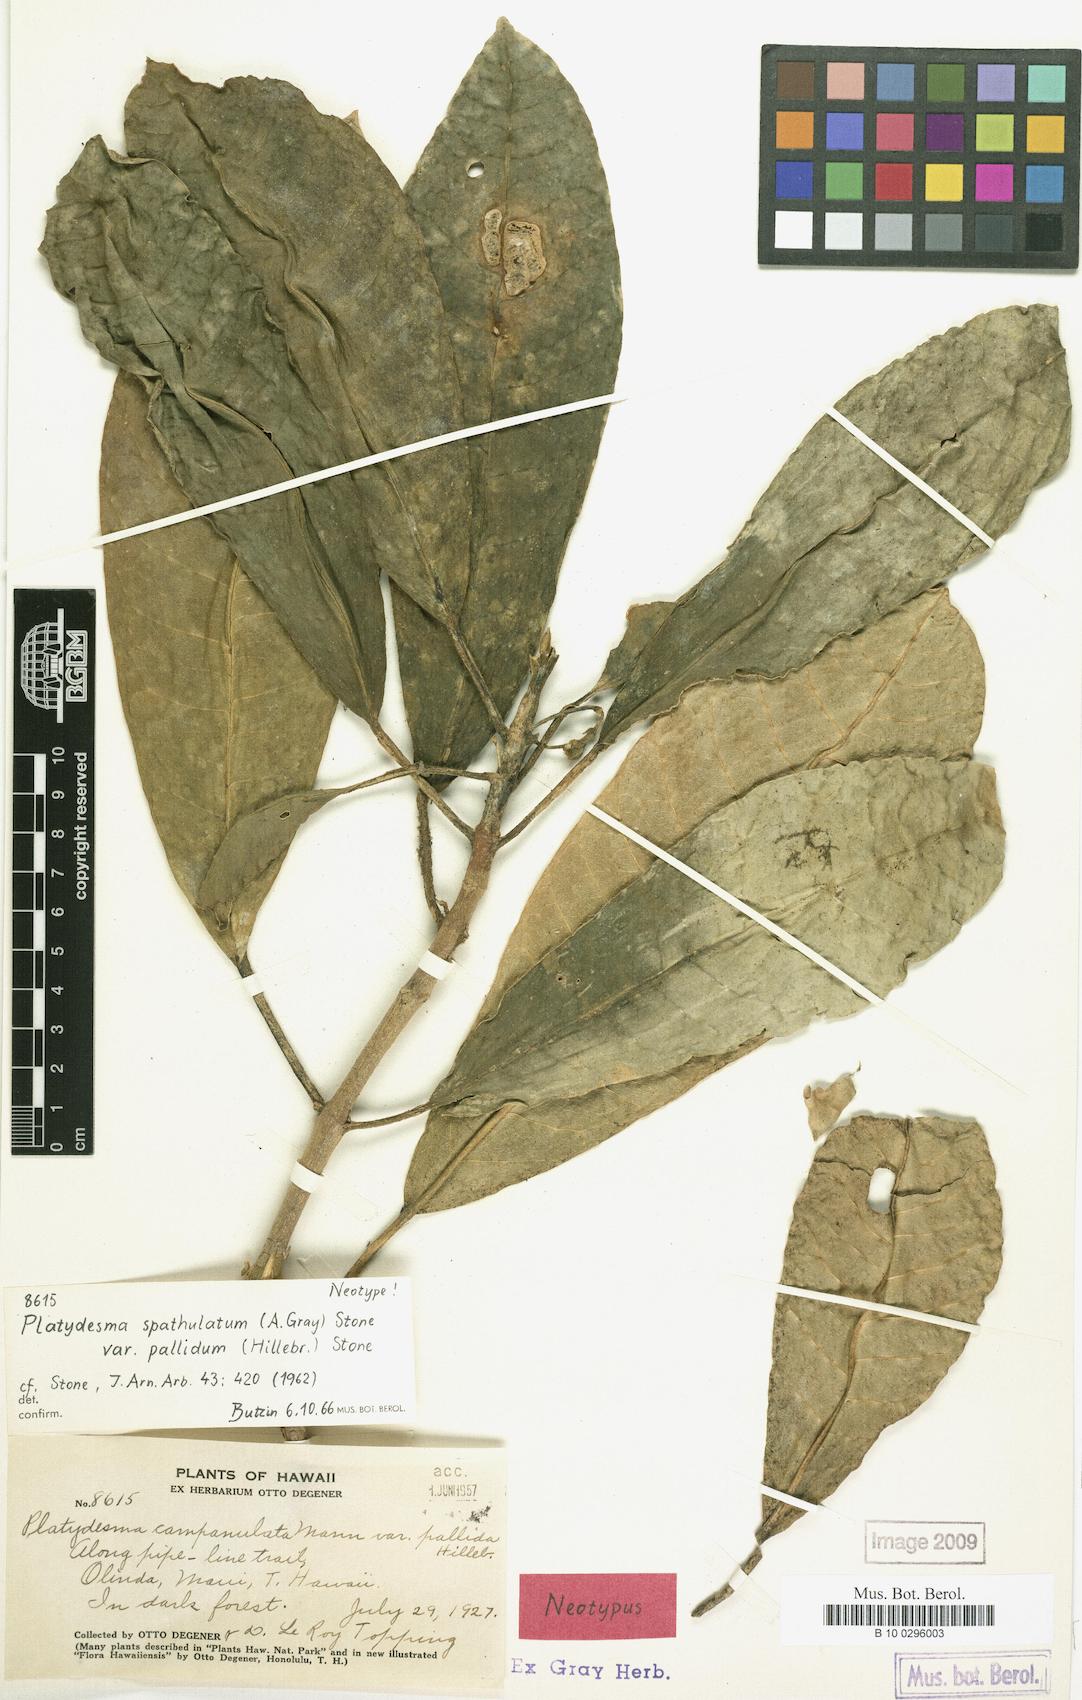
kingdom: Plantae
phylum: Tracheophyta
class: Magnoliopsida
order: Sapindales
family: Rutaceae
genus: Melicope
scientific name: Melicope spathulata
